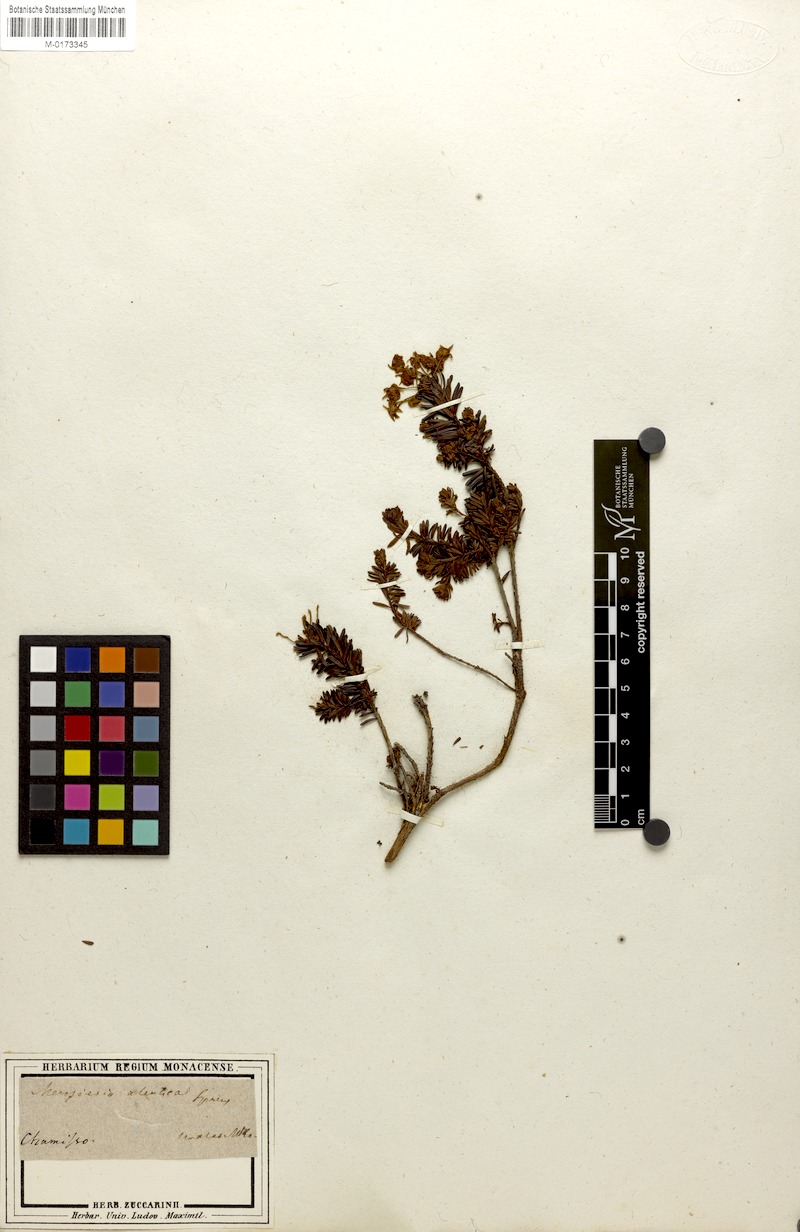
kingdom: Plantae
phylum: Tracheophyta
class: Magnoliopsida
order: Ericales
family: Ericaceae
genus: Phyllodoce
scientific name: Phyllodoce aleutica
